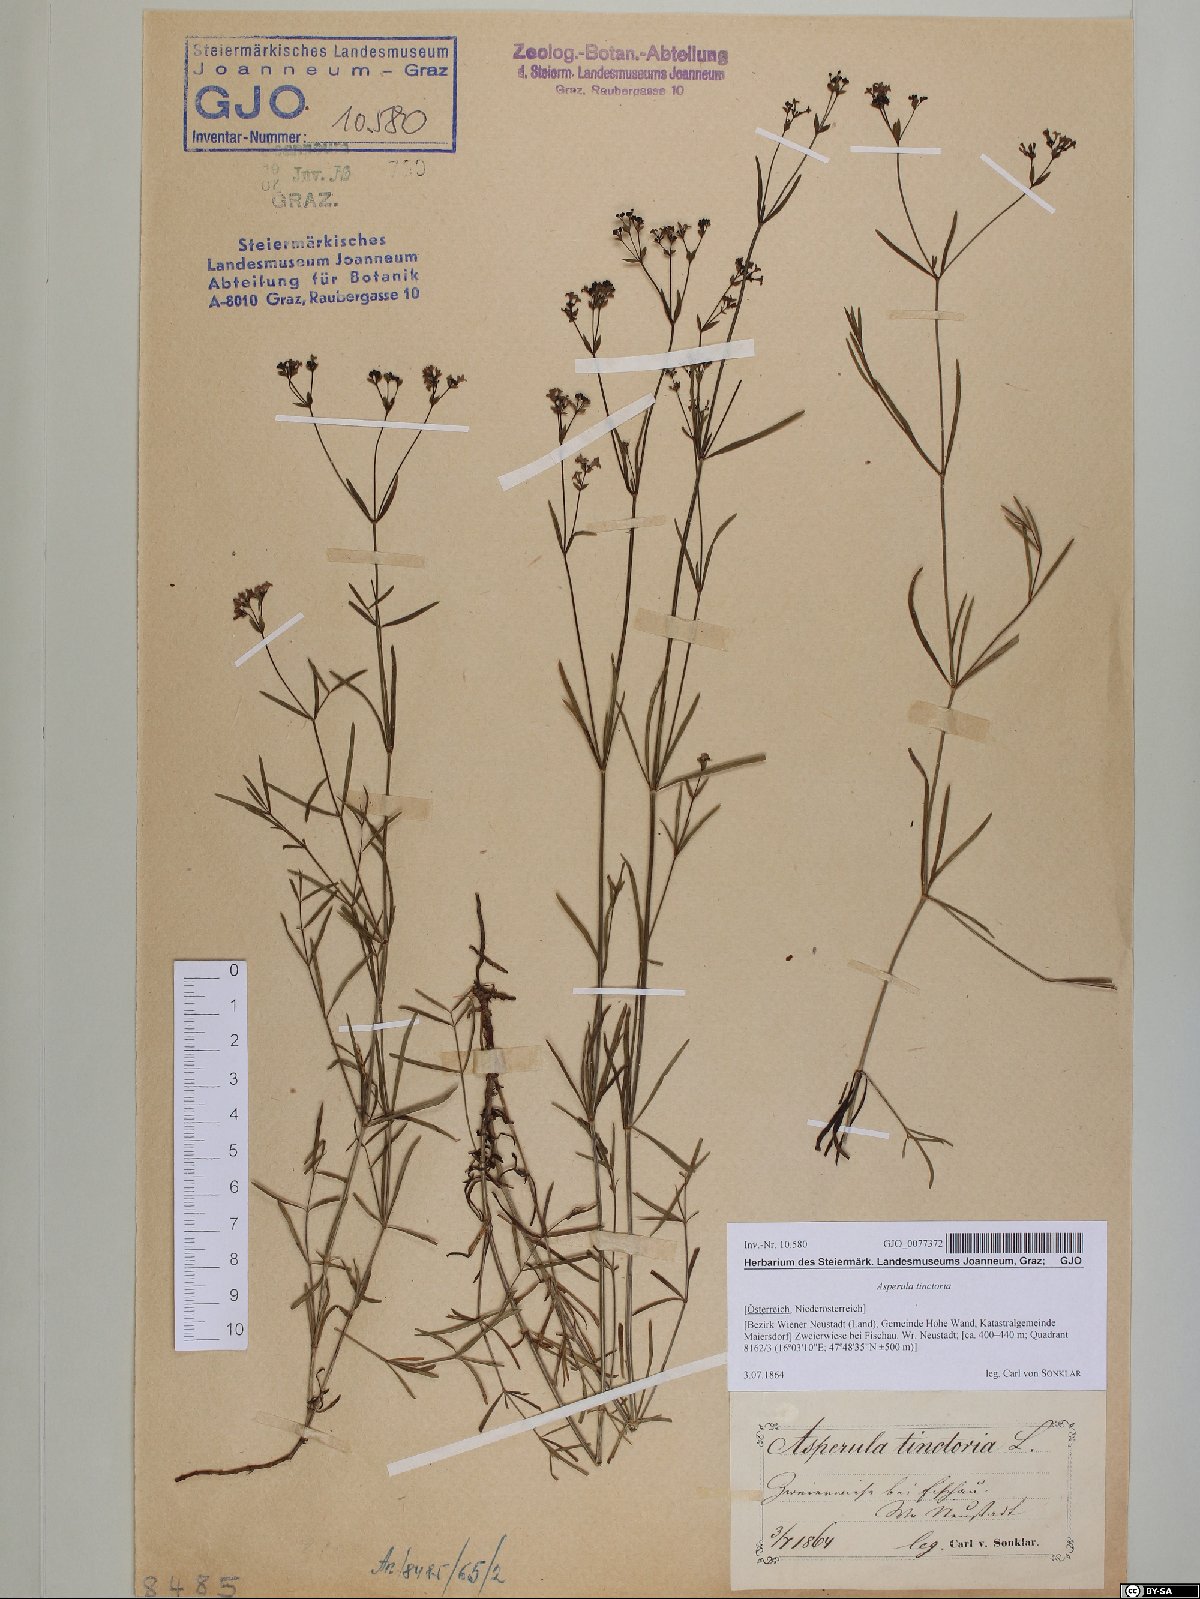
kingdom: Plantae
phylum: Tracheophyta
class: Magnoliopsida
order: Gentianales
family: Rubiaceae
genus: Asperula
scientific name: Asperula tinctoria
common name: Dyer's woodruff
